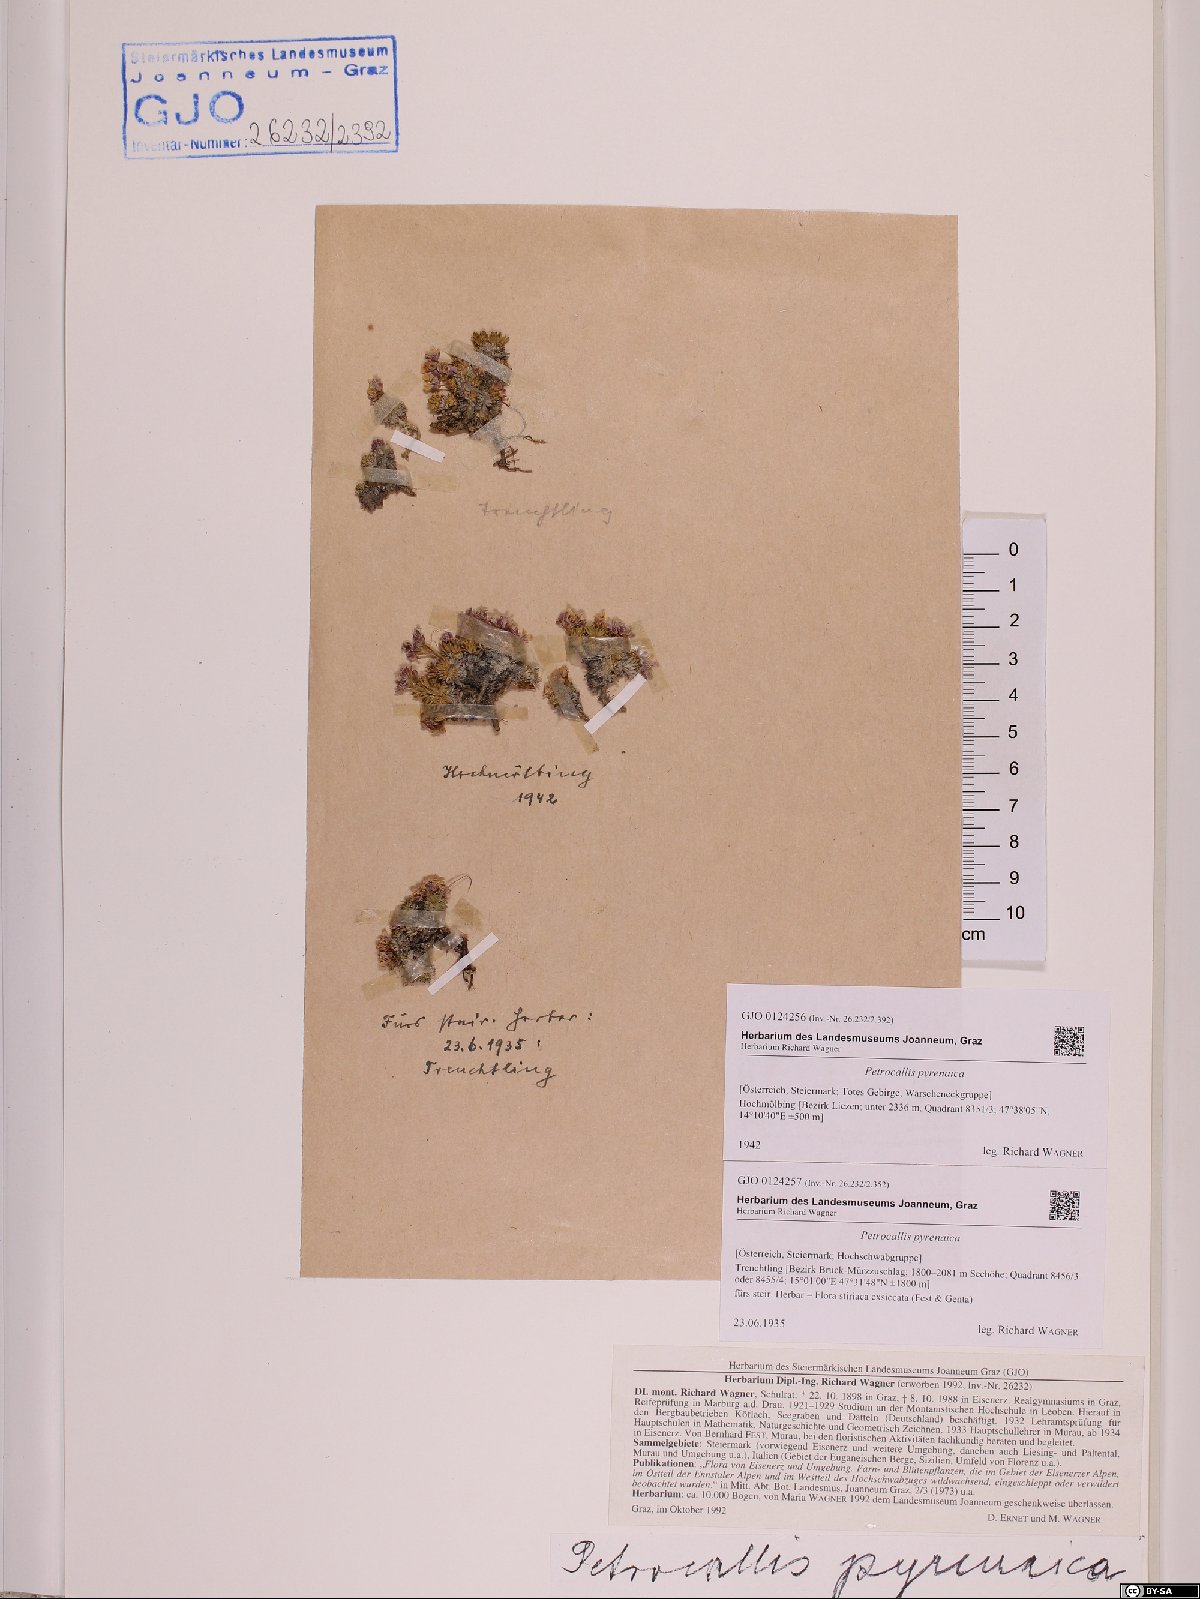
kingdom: Plantae
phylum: Tracheophyta
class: Magnoliopsida
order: Brassicales
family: Brassicaceae
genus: Petrocallis
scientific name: Petrocallis pyrenaica
